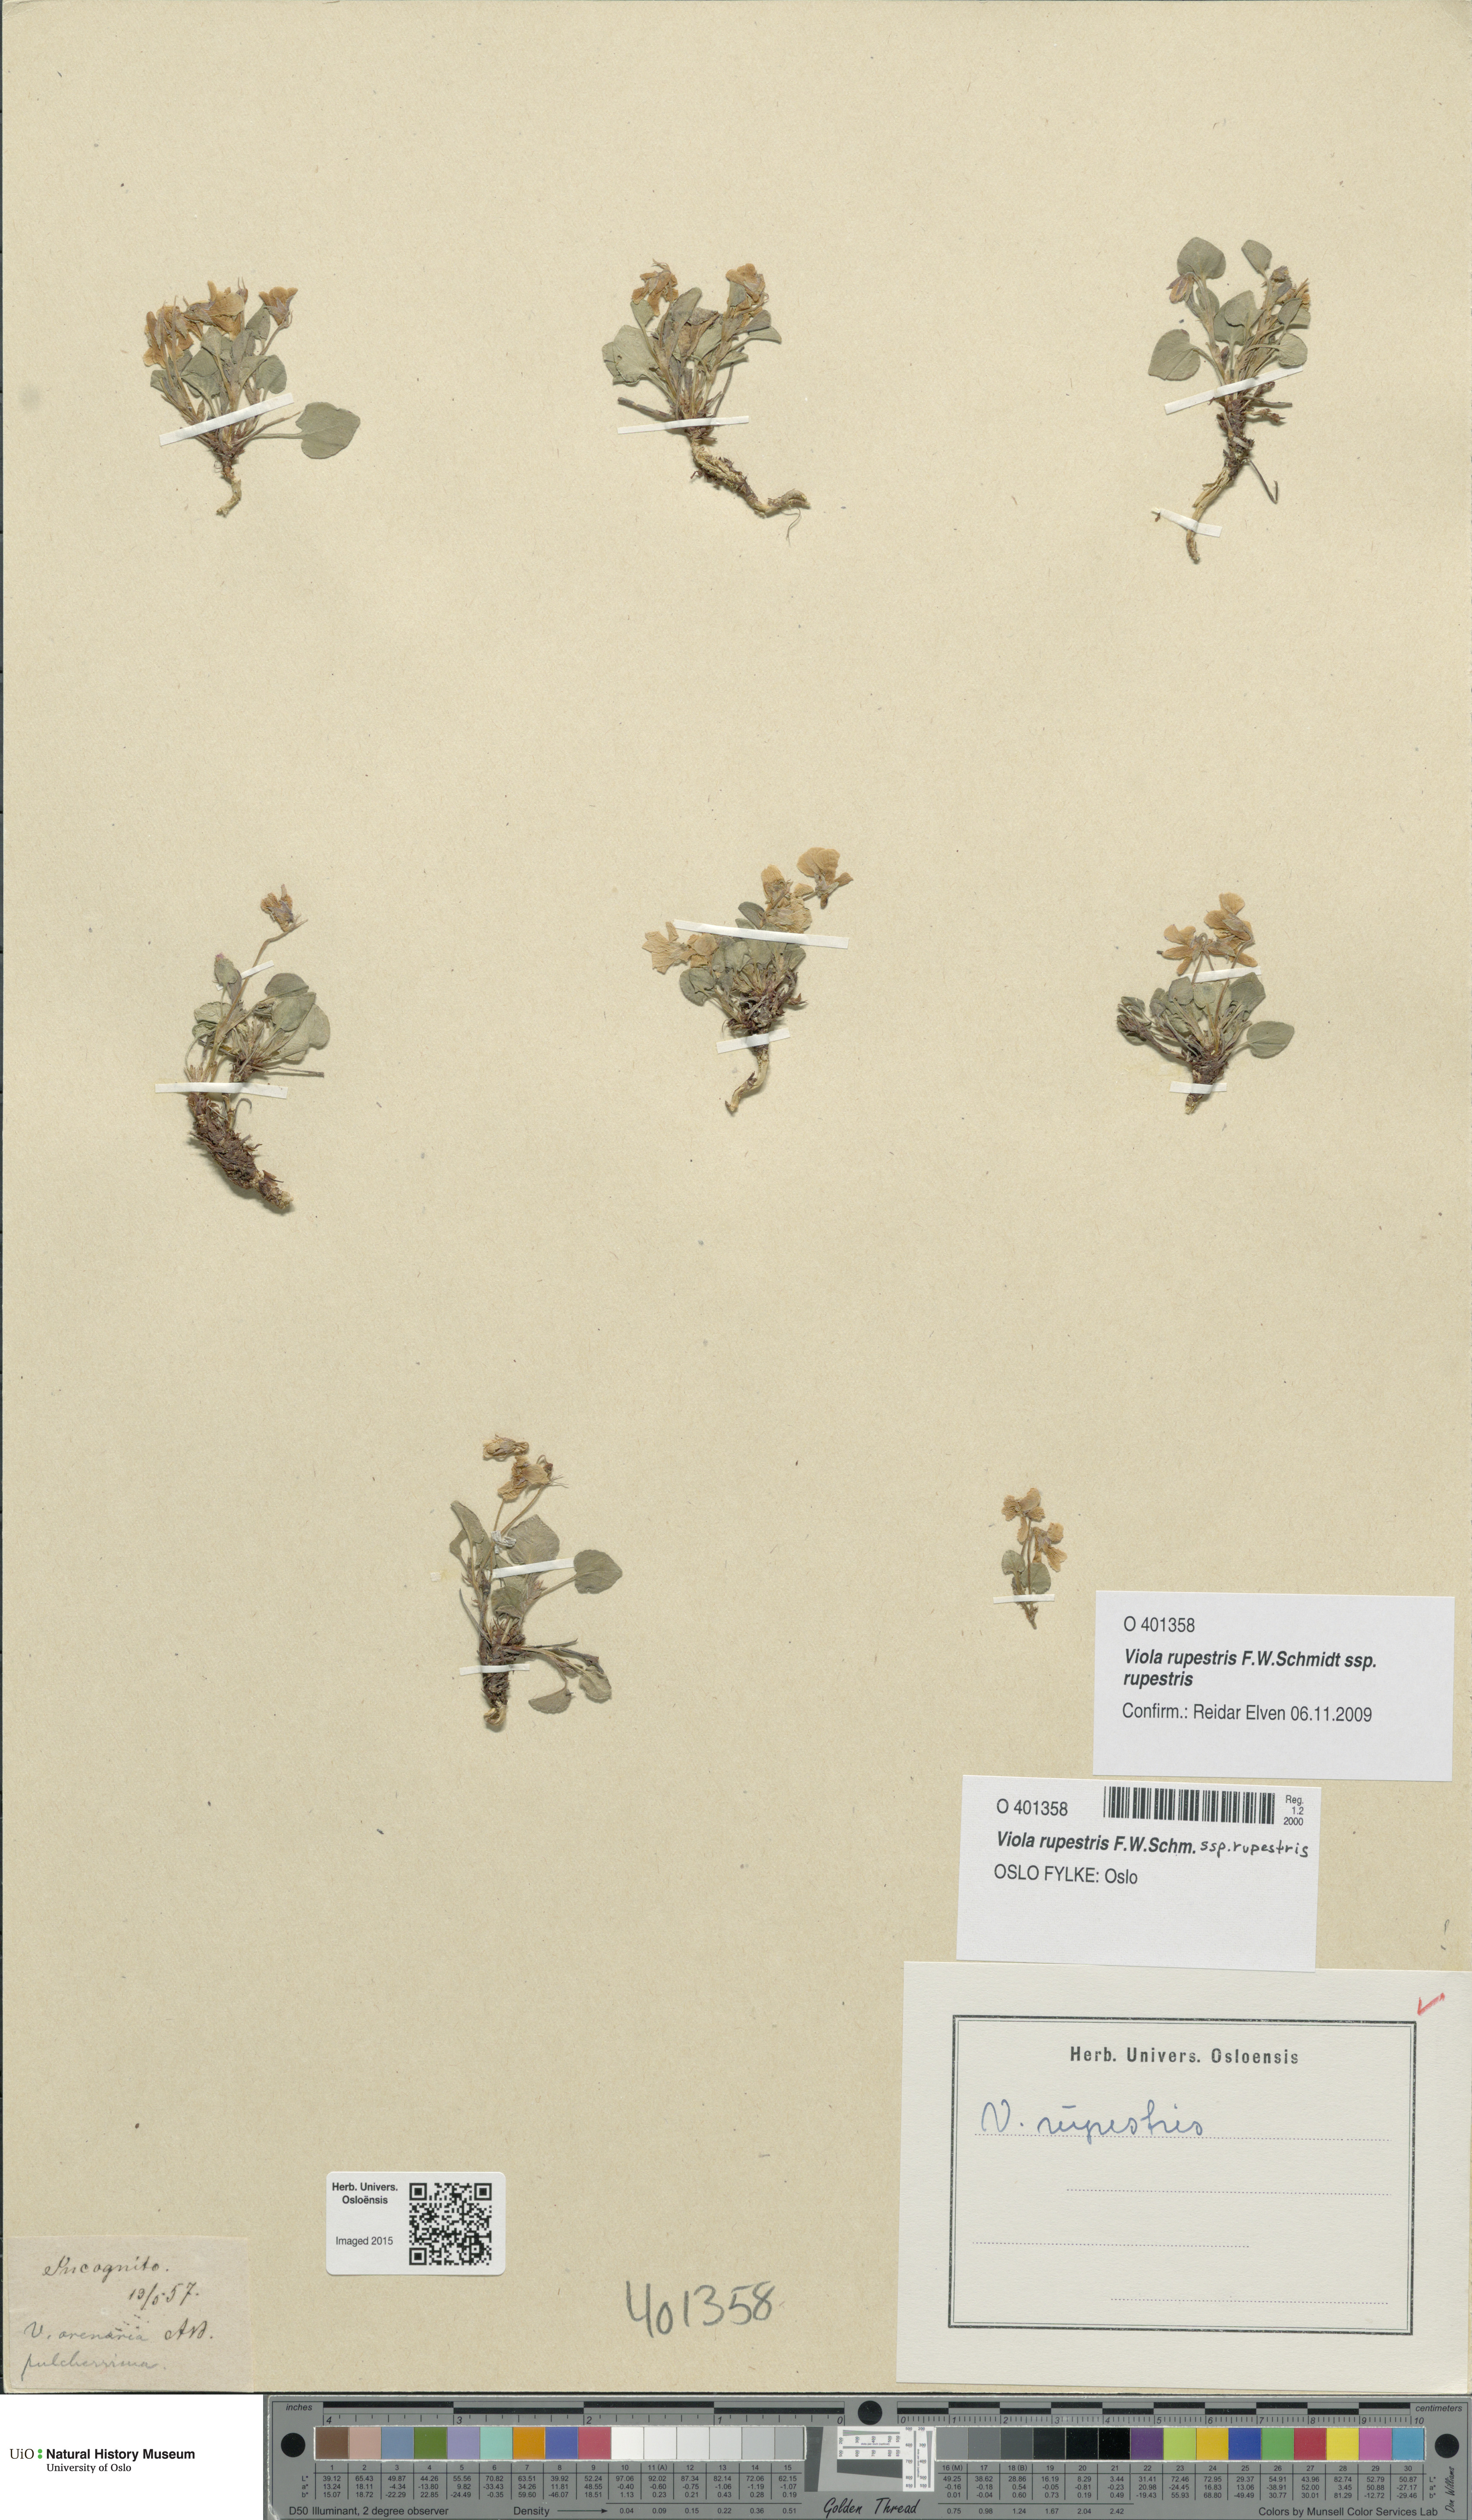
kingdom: Plantae
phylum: Tracheophyta
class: Magnoliopsida
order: Malpighiales
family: Violaceae
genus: Viola
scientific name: Viola rupestris
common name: Teesdale violet
